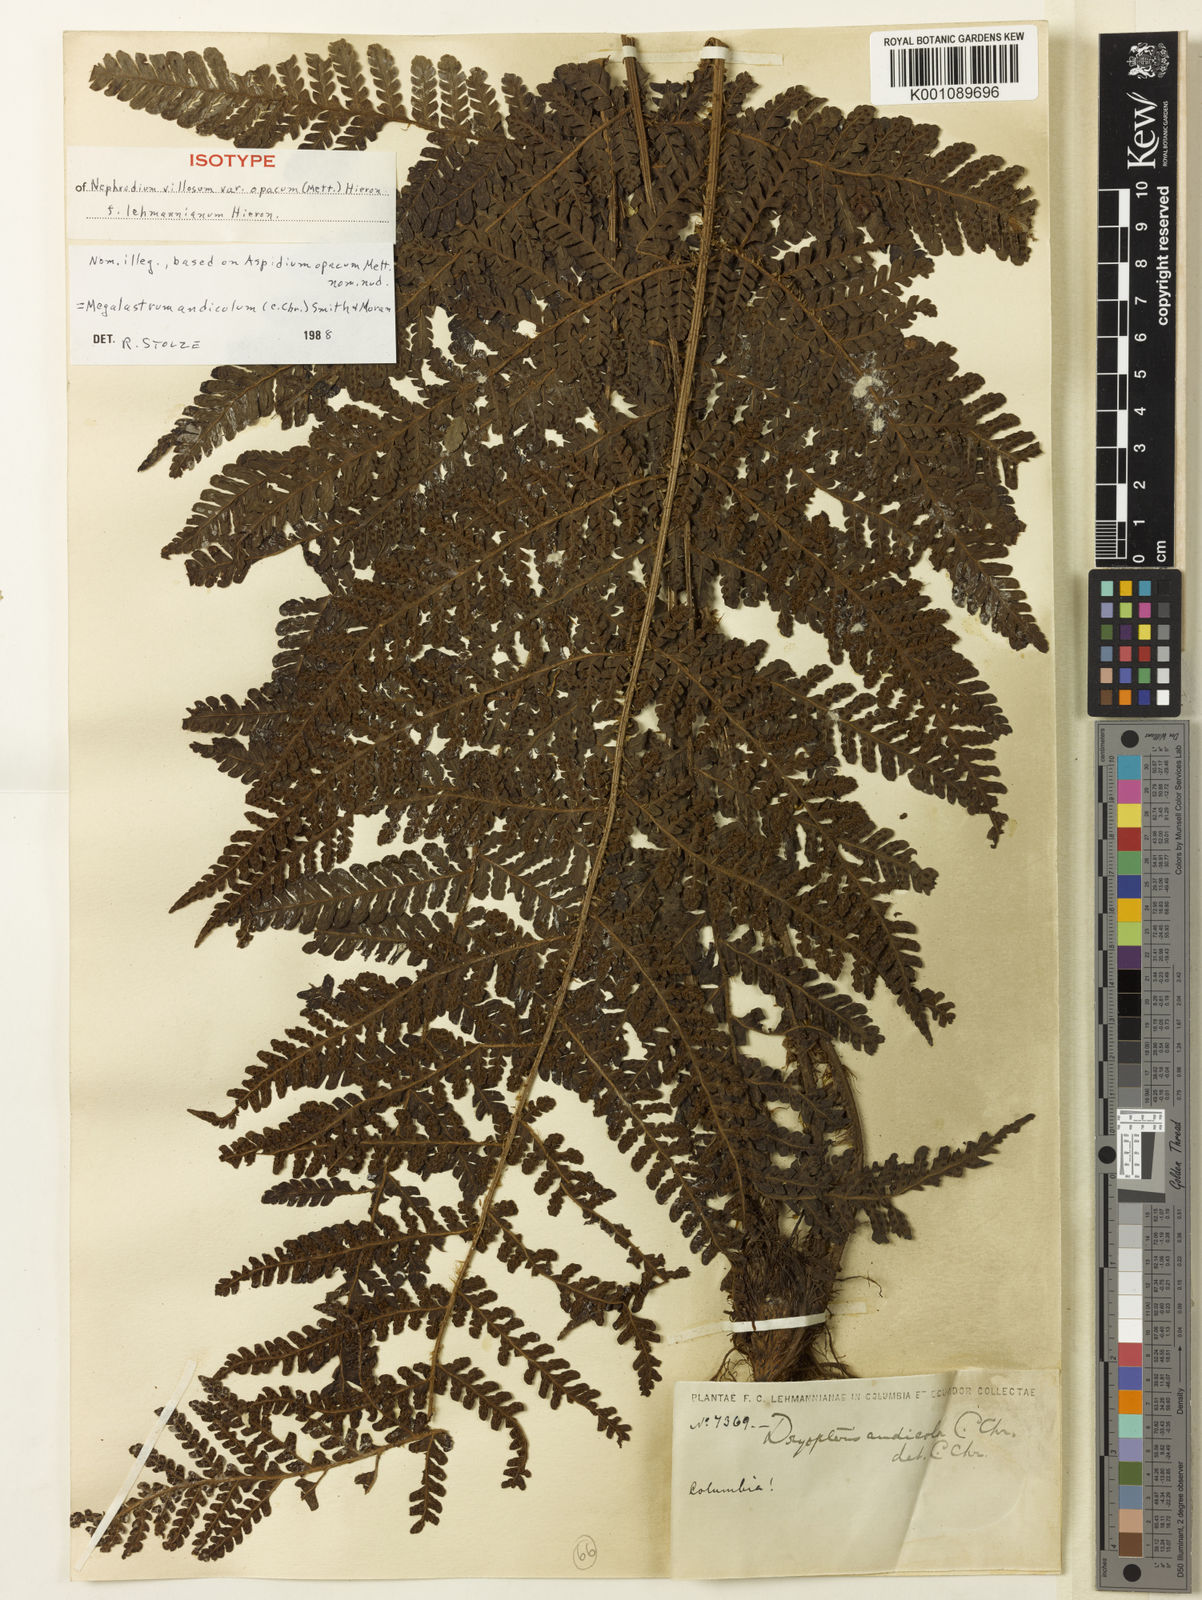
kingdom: Plantae
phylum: Tracheophyta
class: Polypodiopsida
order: Polypodiales
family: Dryopteridaceae
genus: Megalastrum
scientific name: Megalastrum andicola
